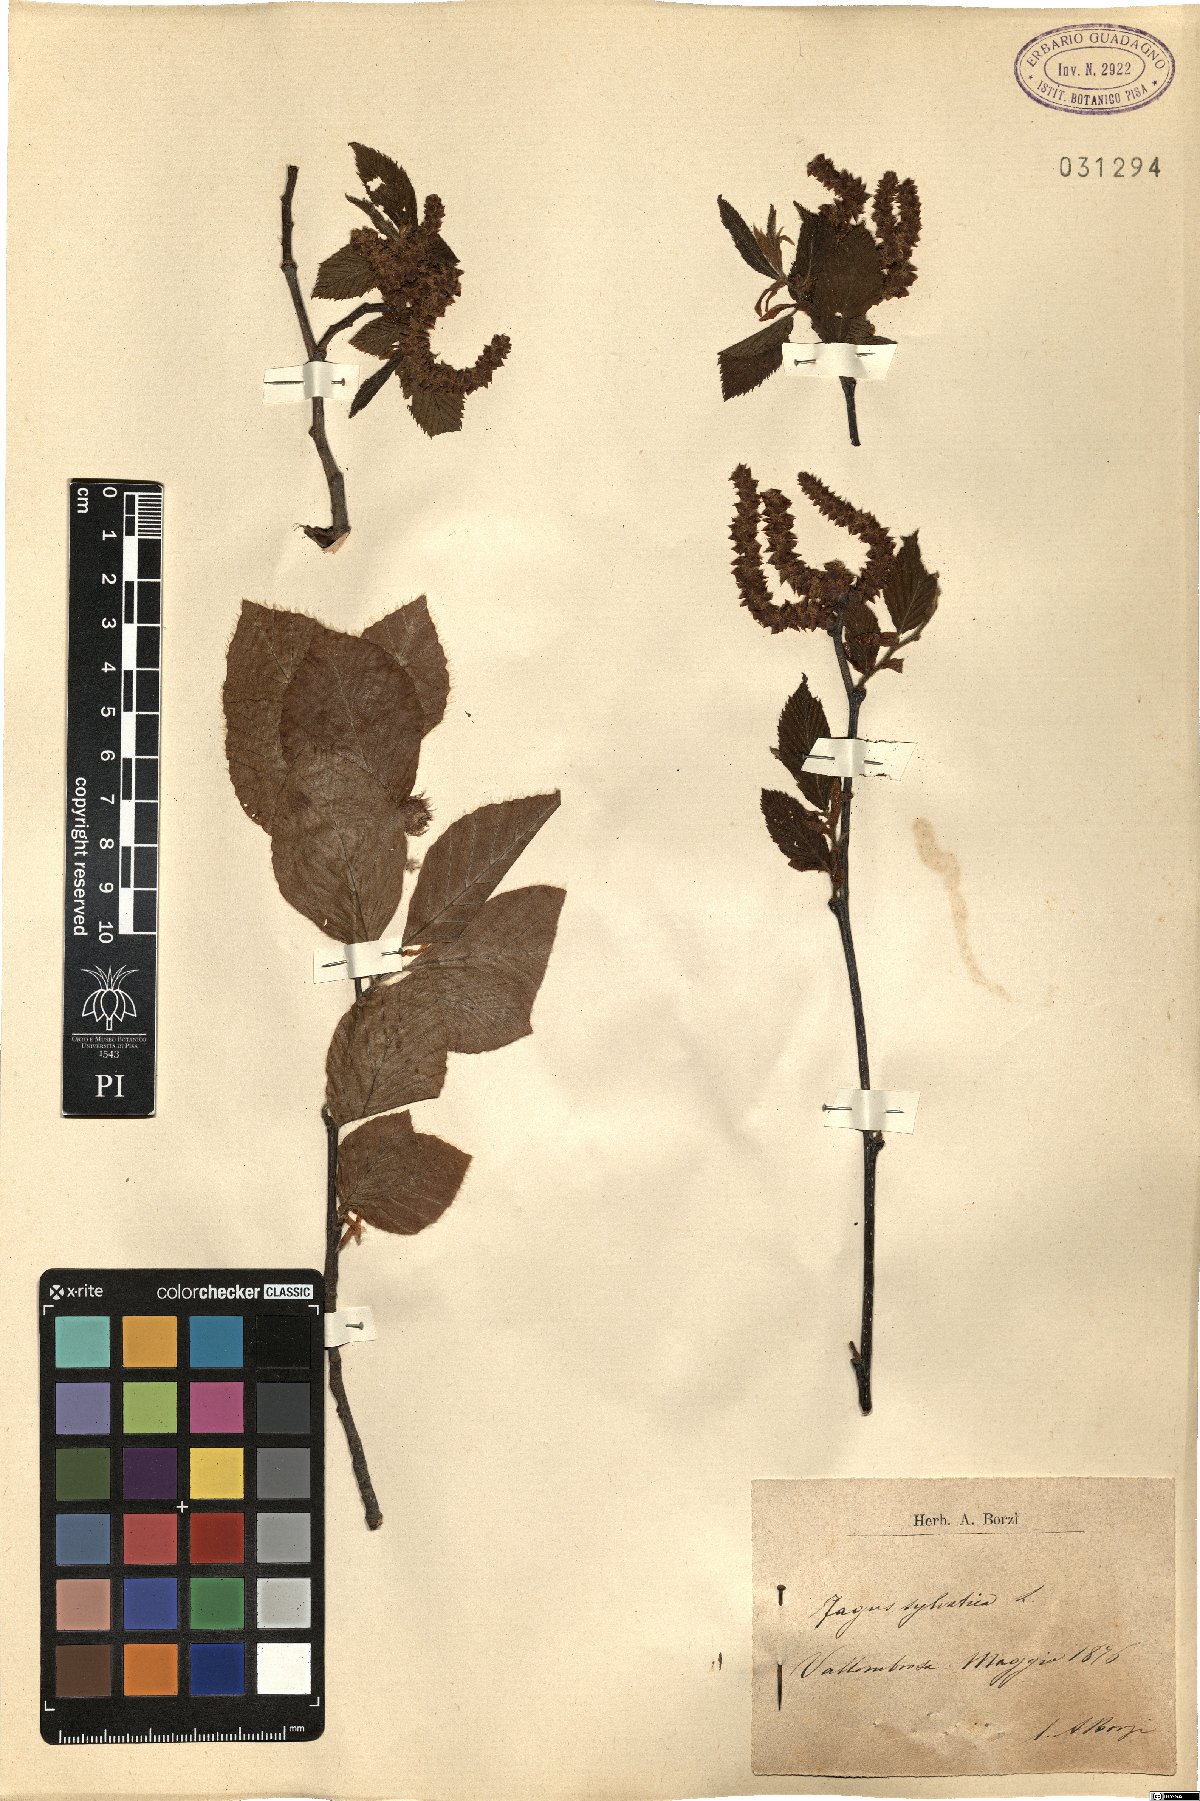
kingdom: Plantae
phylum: Tracheophyta
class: Magnoliopsida
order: Fagales
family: Fagaceae
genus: Fagus
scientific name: Fagus sylvatica
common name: Beech
